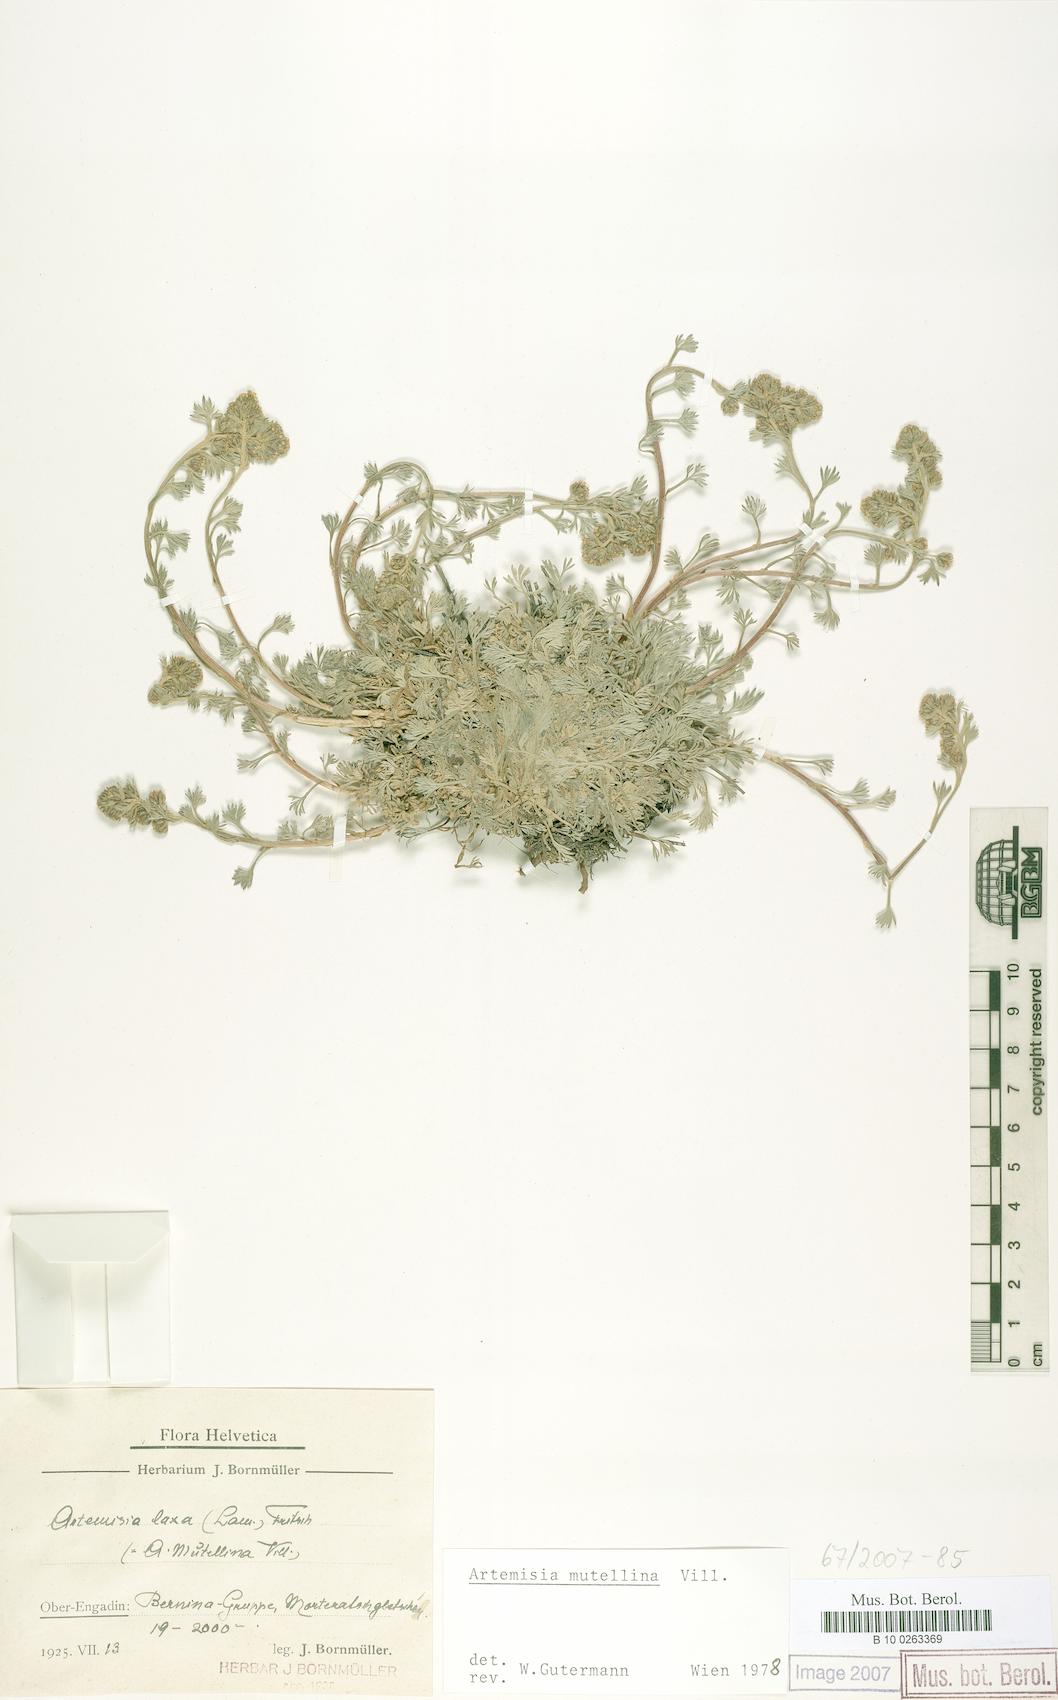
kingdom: Plantae
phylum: Tracheophyta
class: Magnoliopsida
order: Asterales
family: Asteraceae
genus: Artemisia
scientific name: Artemisia mutellina
